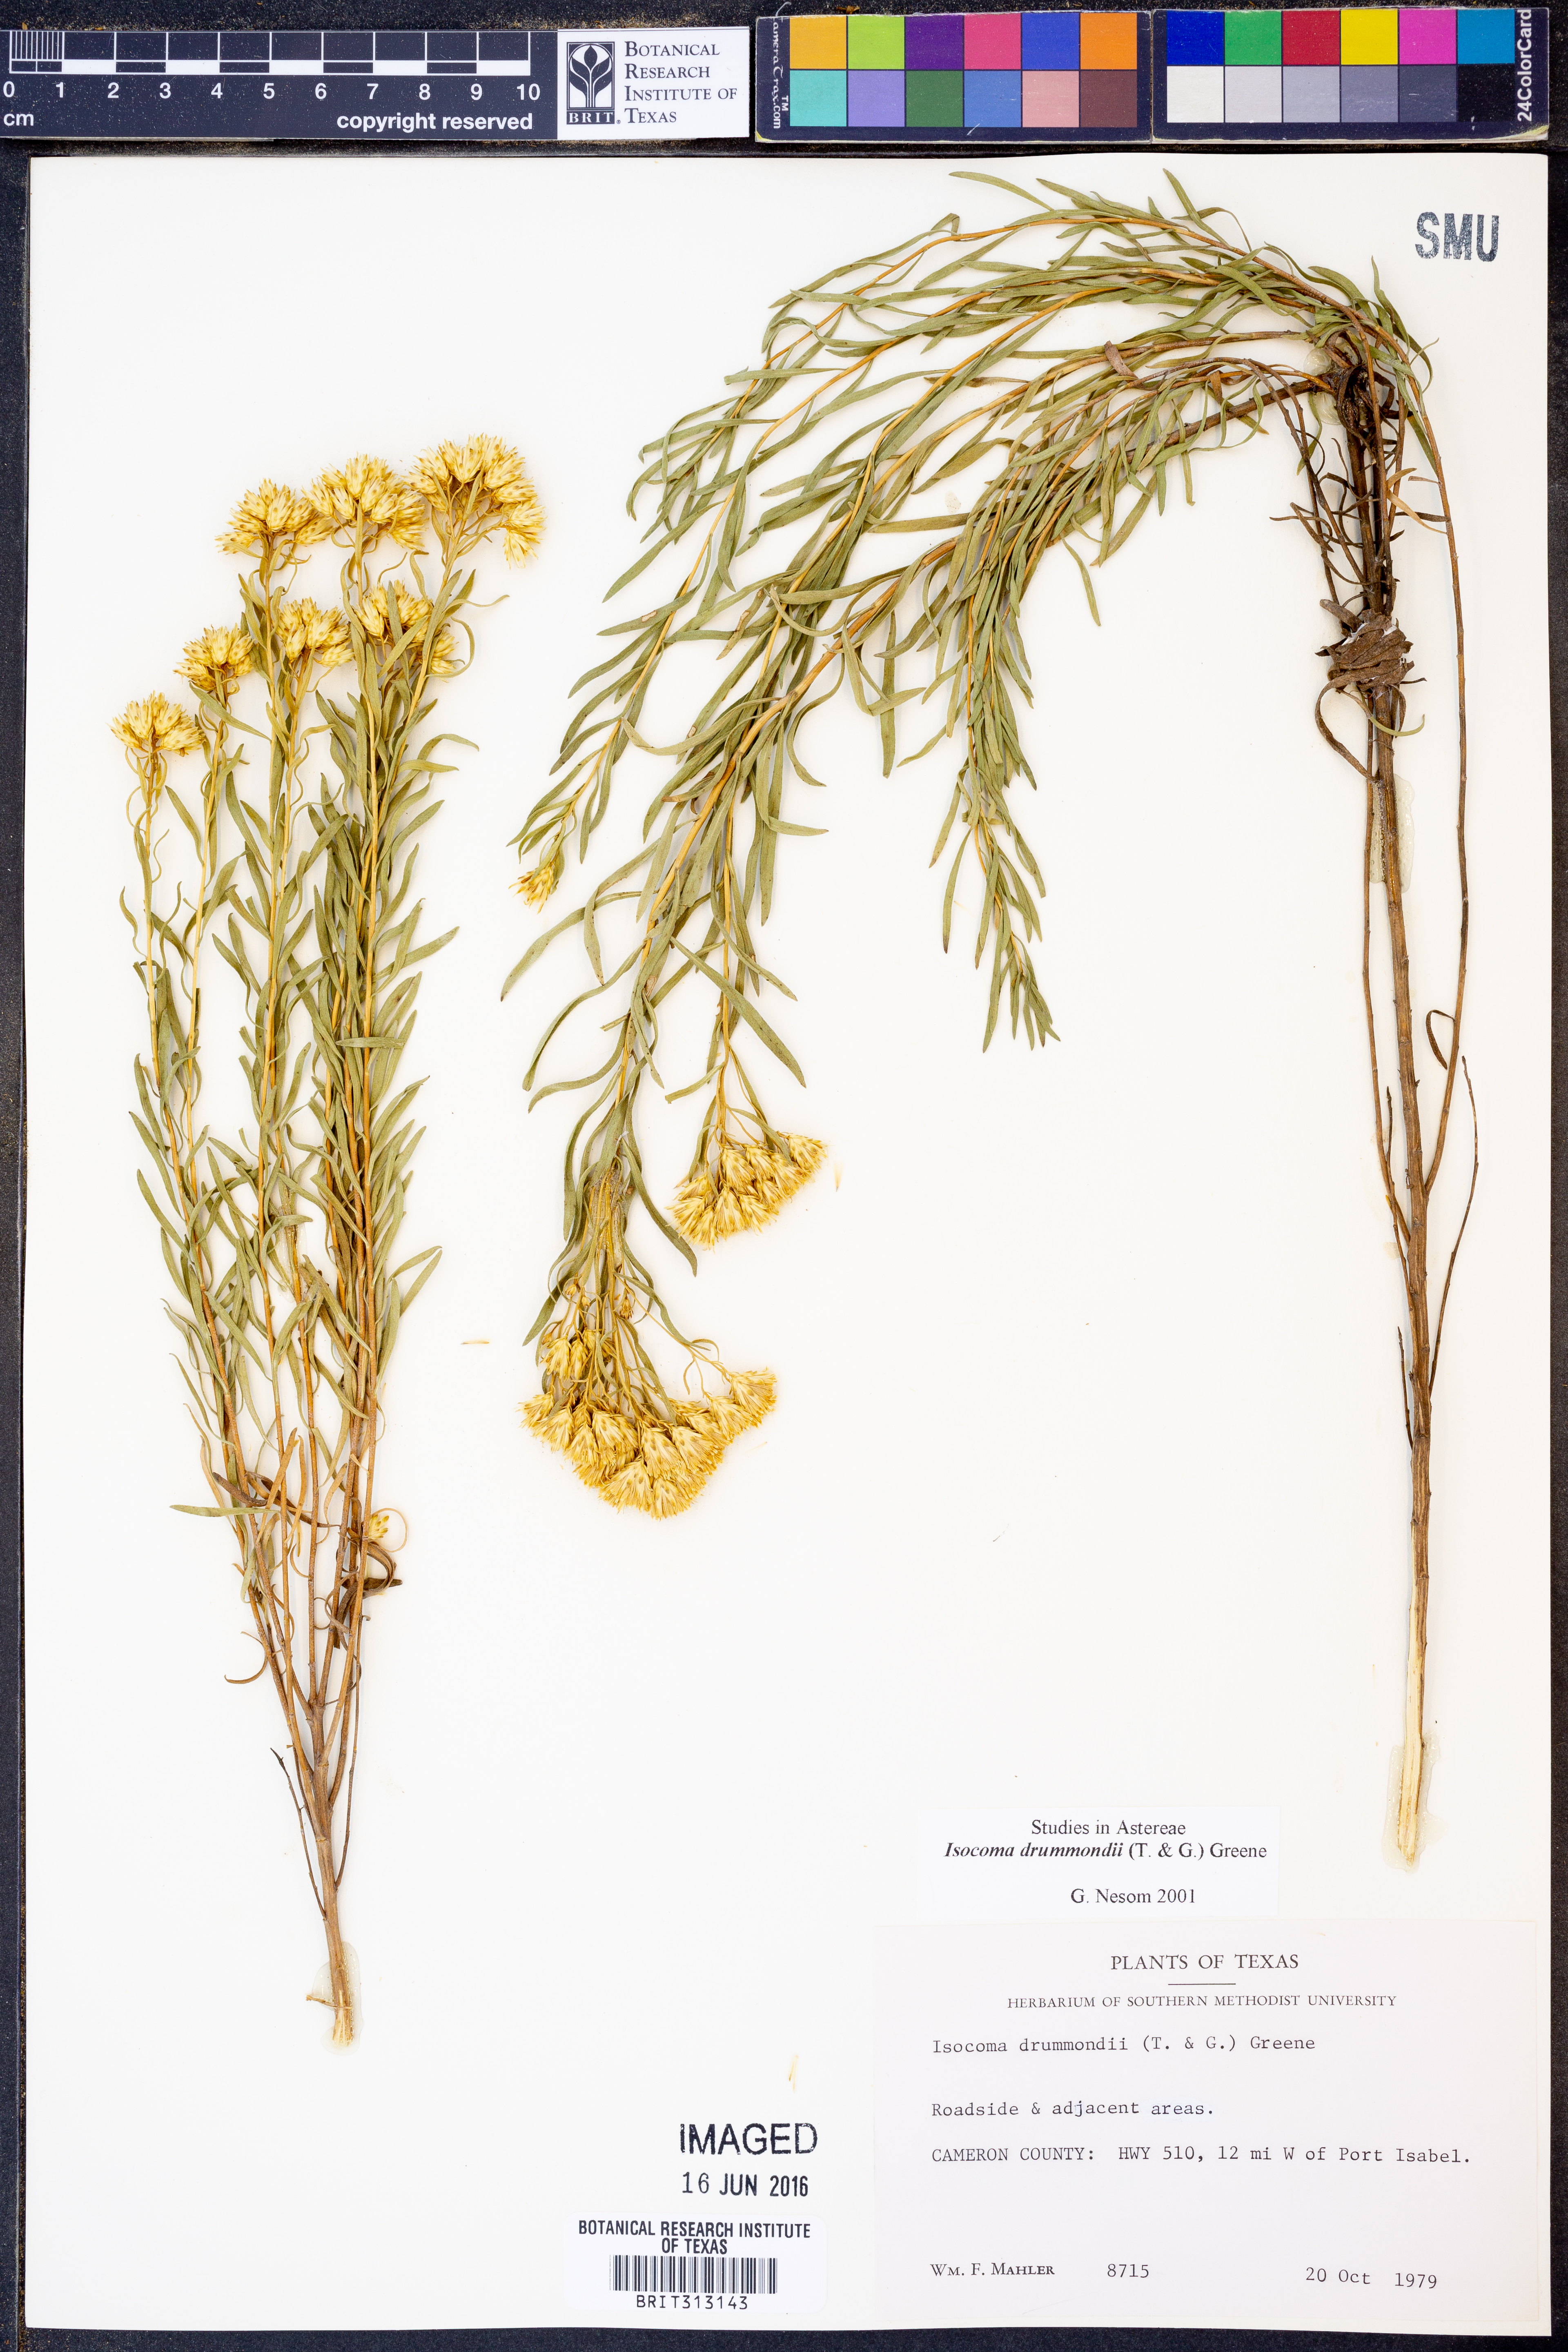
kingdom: Plantae
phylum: Tracheophyta
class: Magnoliopsida
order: Asterales
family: Asteraceae
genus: Isocoma
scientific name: Isocoma drummondii
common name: Drummond's jimmyweed
